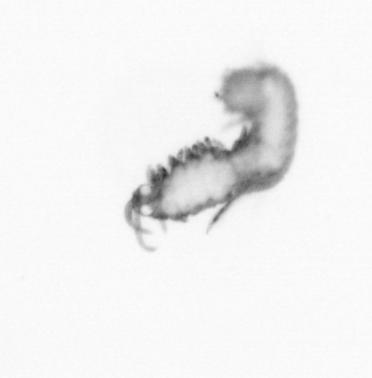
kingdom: Animalia
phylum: Annelida
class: Polychaeta
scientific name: Polychaeta
